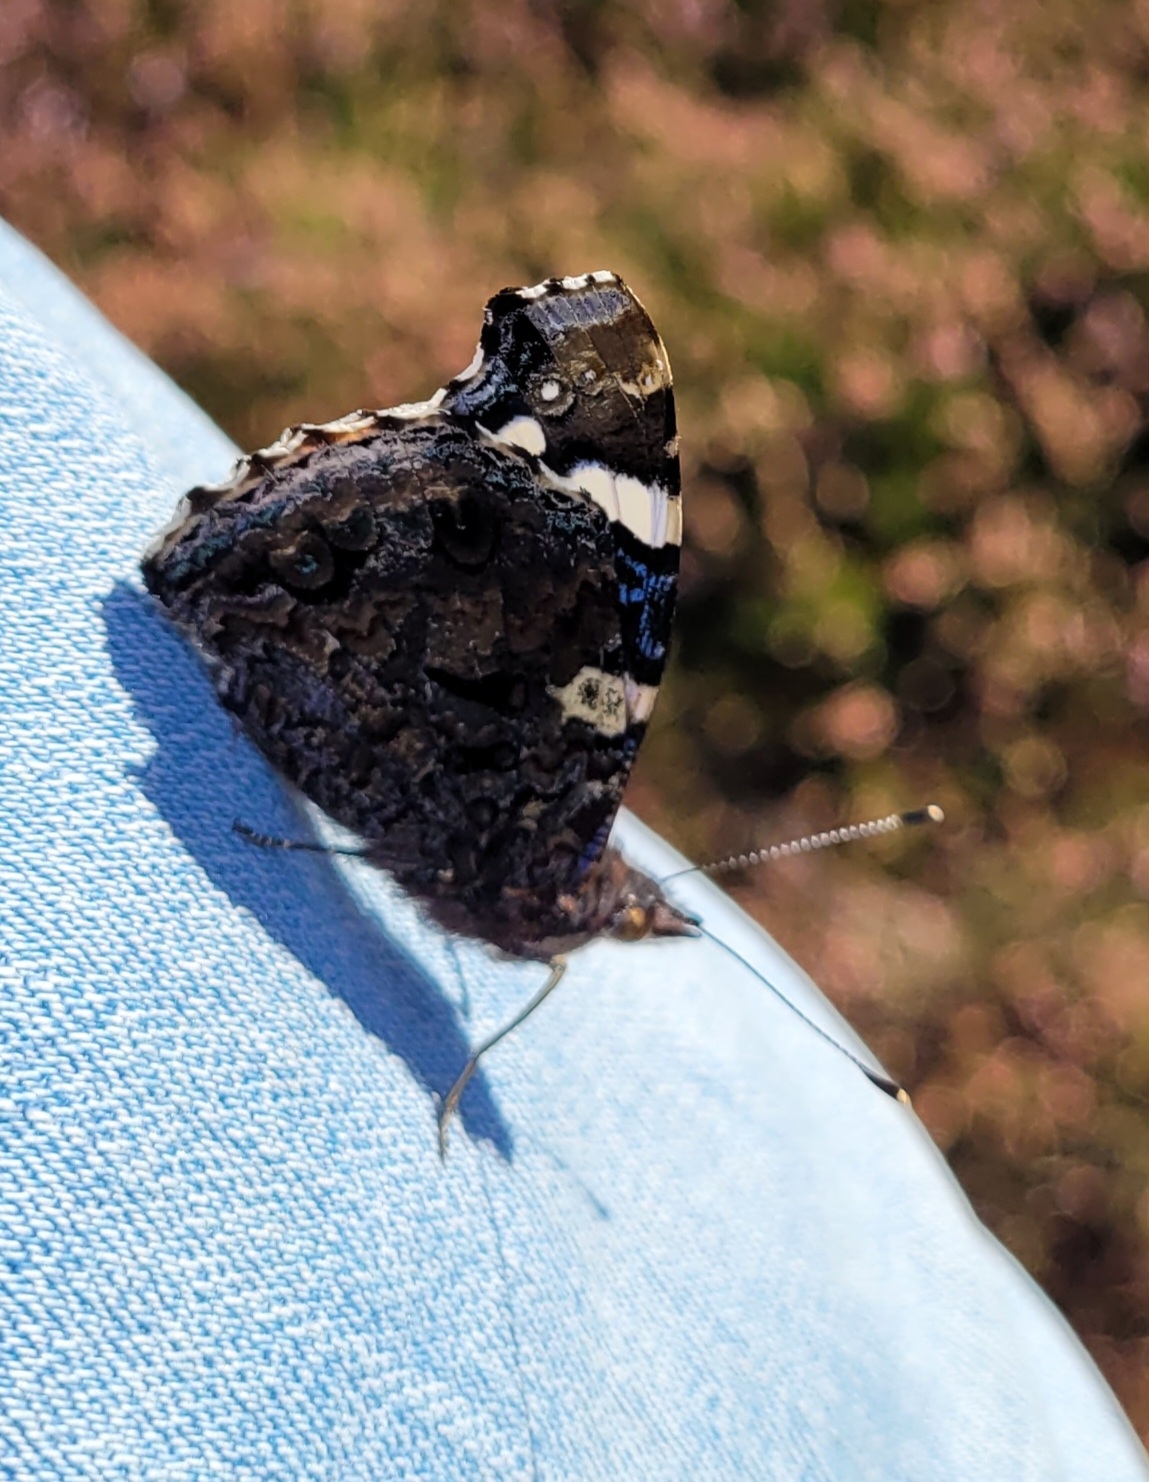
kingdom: Animalia
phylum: Arthropoda
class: Insecta
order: Lepidoptera
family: Nymphalidae
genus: Vanessa
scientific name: Vanessa atalanta
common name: Admiral
